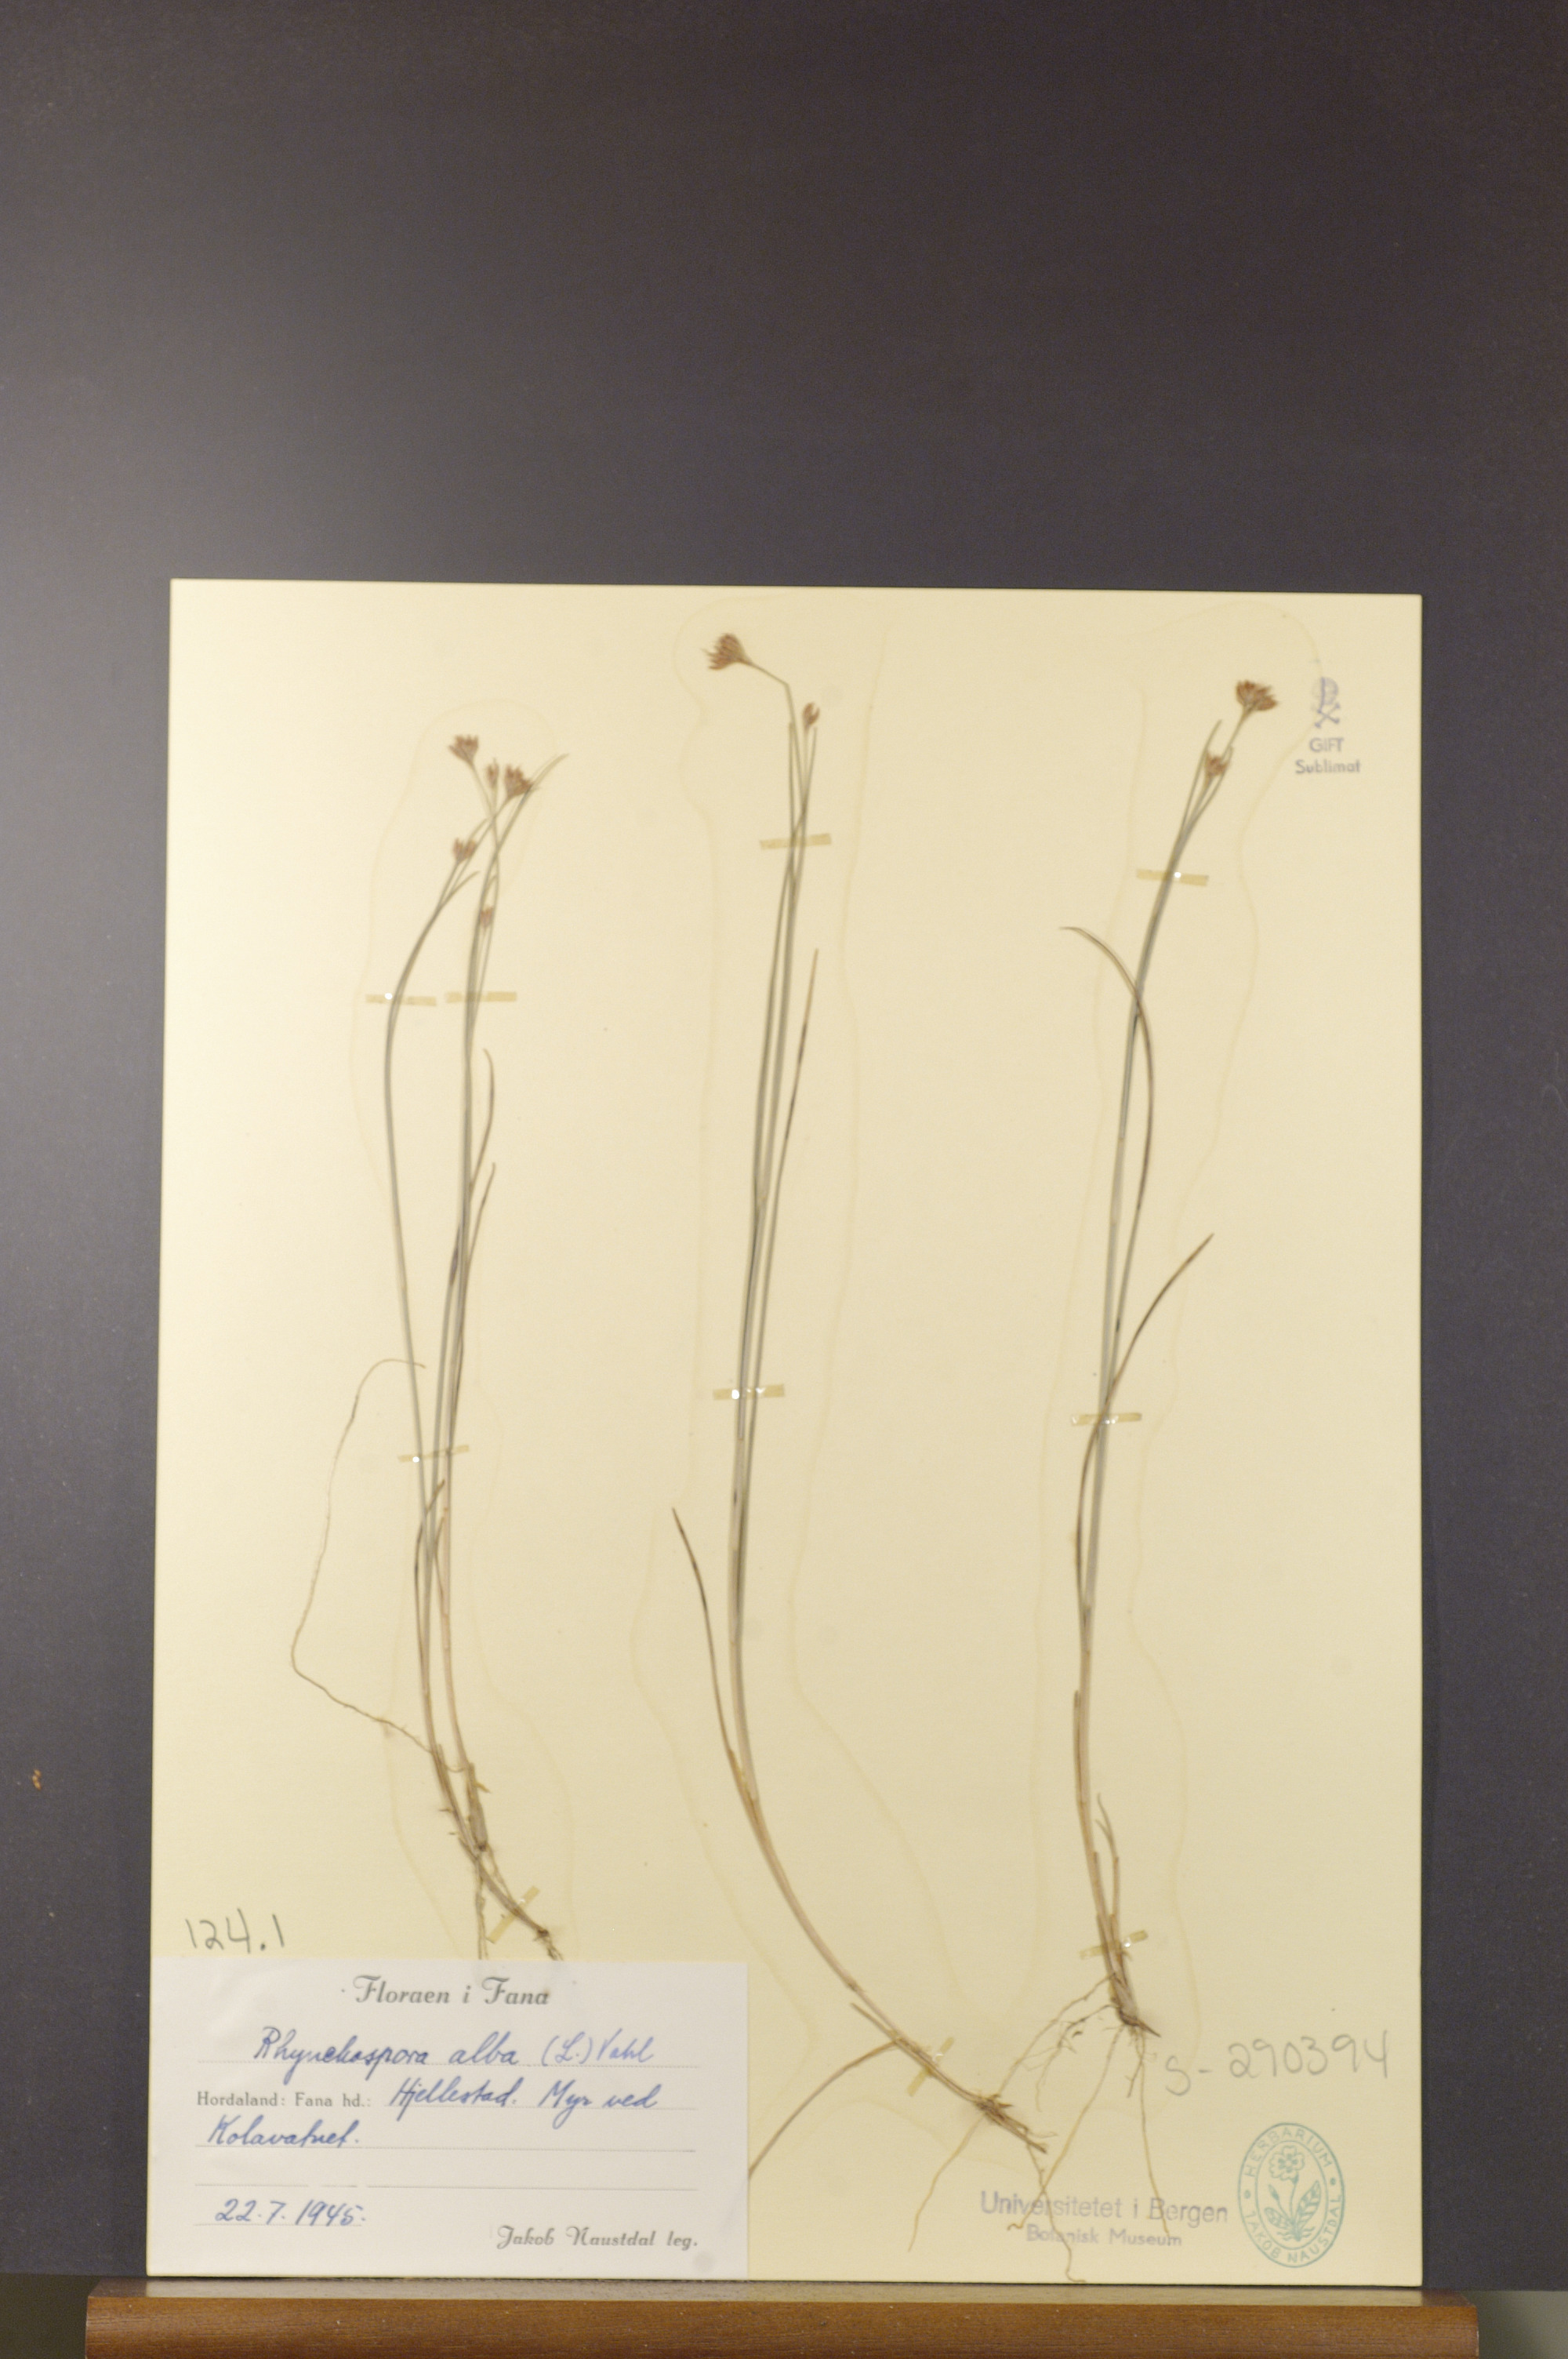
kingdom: Plantae
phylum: Tracheophyta
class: Liliopsida
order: Poales
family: Cyperaceae
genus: Rhynchospora
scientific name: Rhynchospora alba
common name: White beak-sedge
